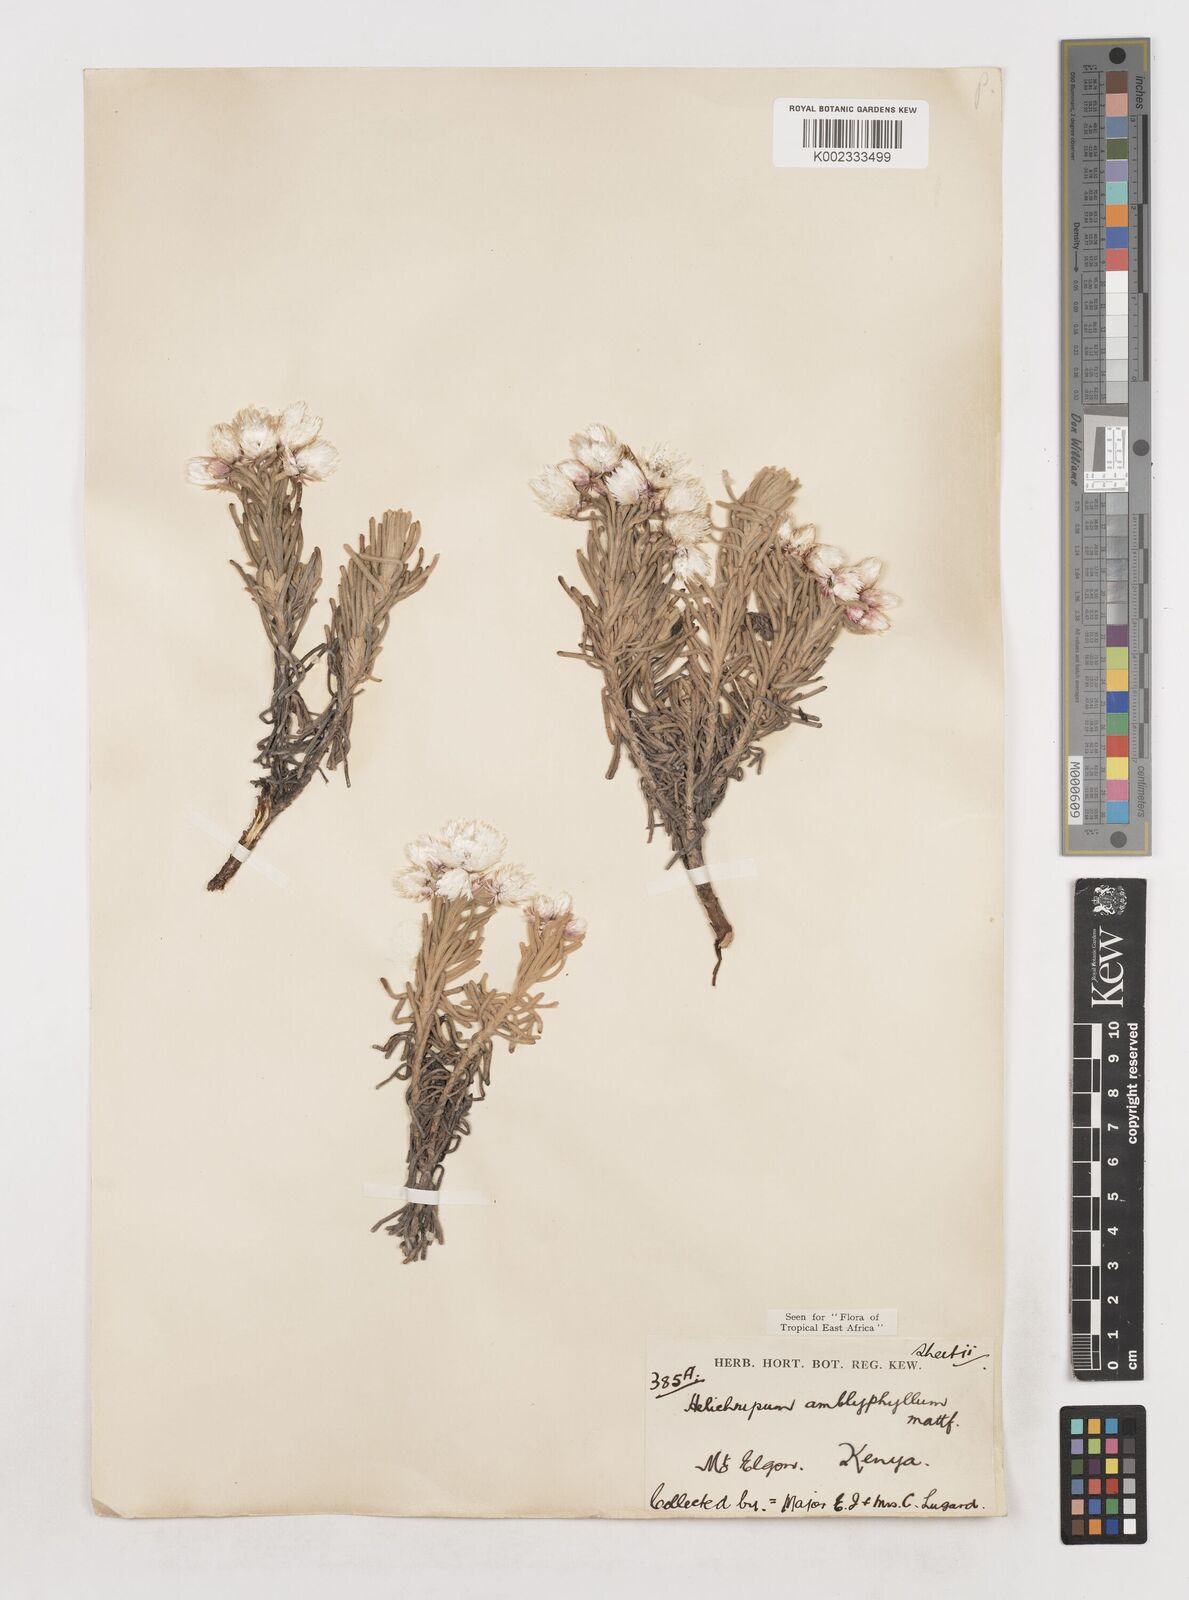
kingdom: Plantae
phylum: Tracheophyta
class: Magnoliopsida
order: Asterales
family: Asteraceae
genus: Helichrysum
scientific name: Helichrysum amblyphyllum
